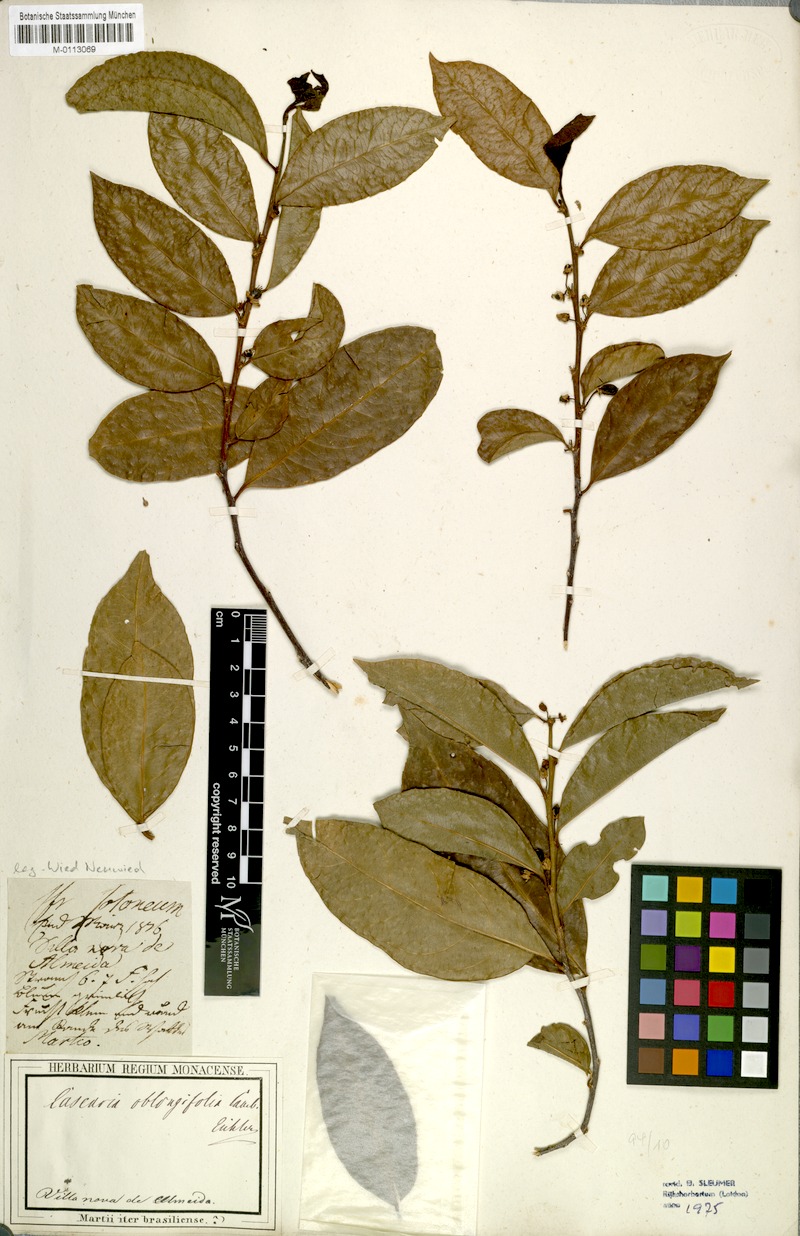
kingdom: Plantae
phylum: Tracheophyta
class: Magnoliopsida
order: Malpighiales
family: Salicaceae
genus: Piparea
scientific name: Piparea dentata
